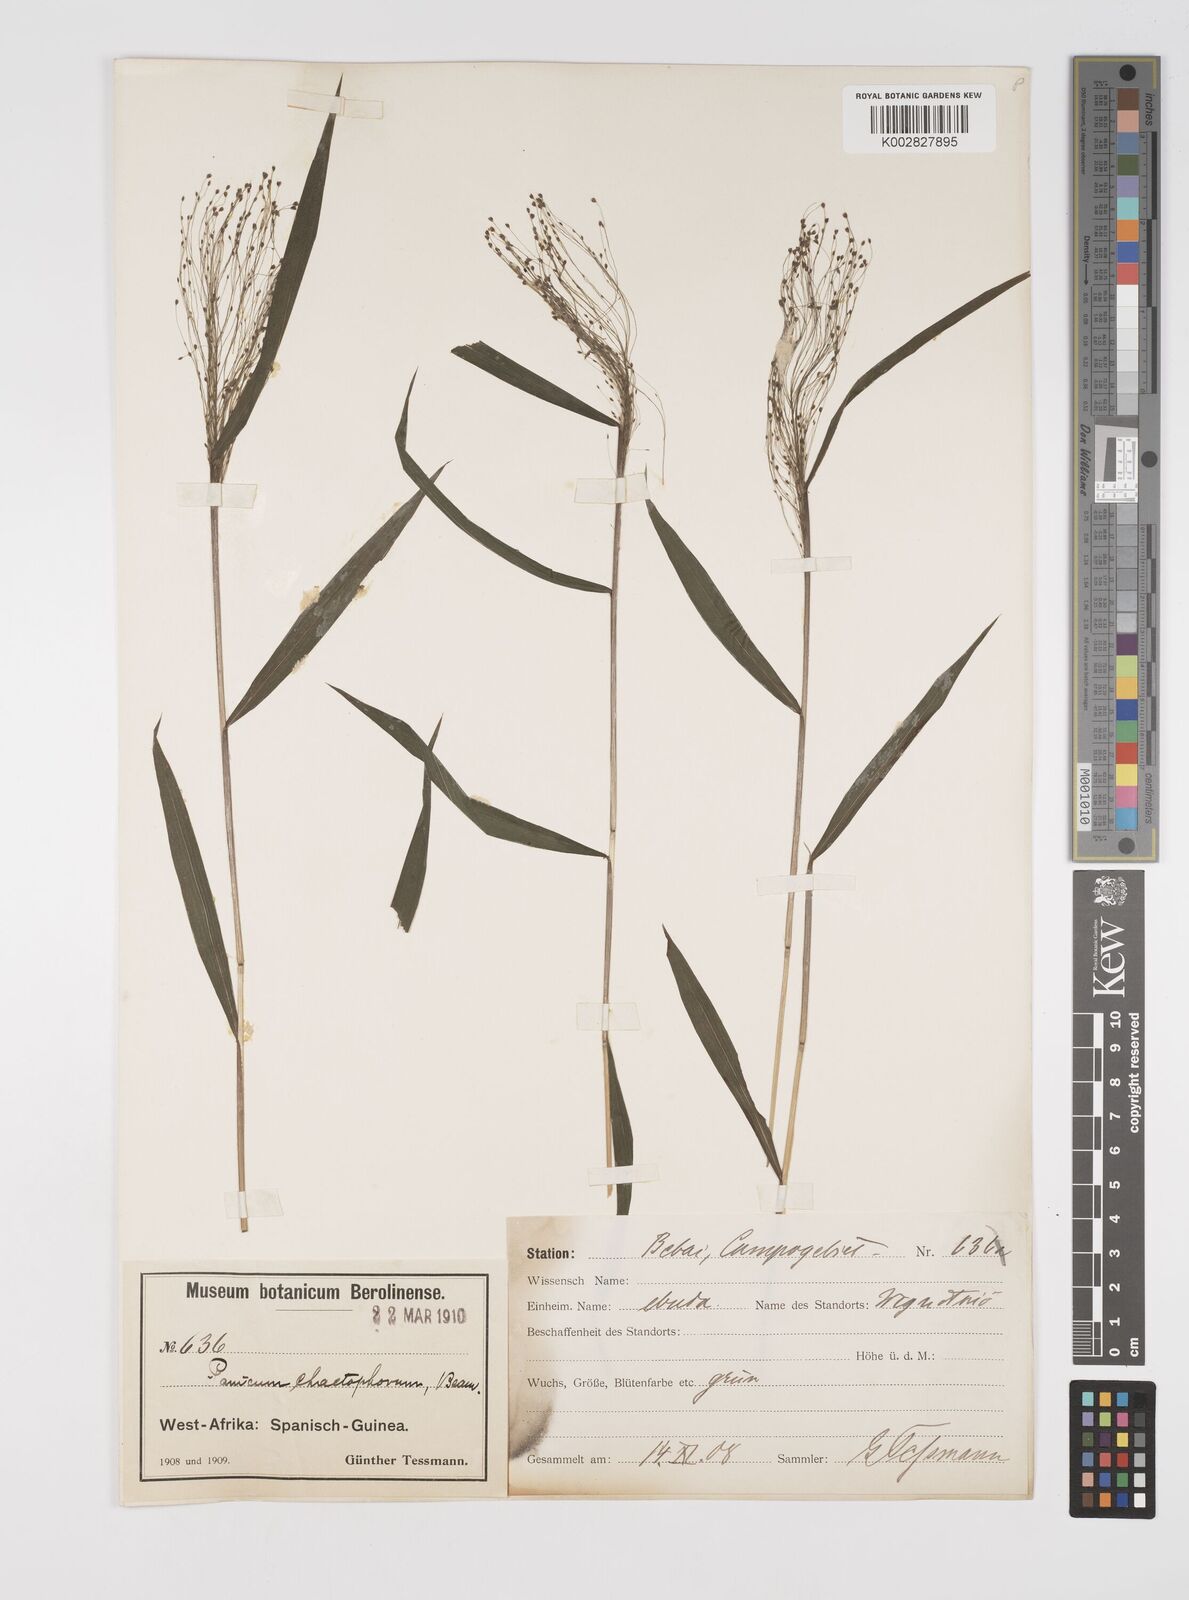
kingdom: Plantae
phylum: Tracheophyta
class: Liliopsida
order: Poales
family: Poaceae
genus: Cyrtococcum
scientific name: Cyrtococcum chaetophoron
